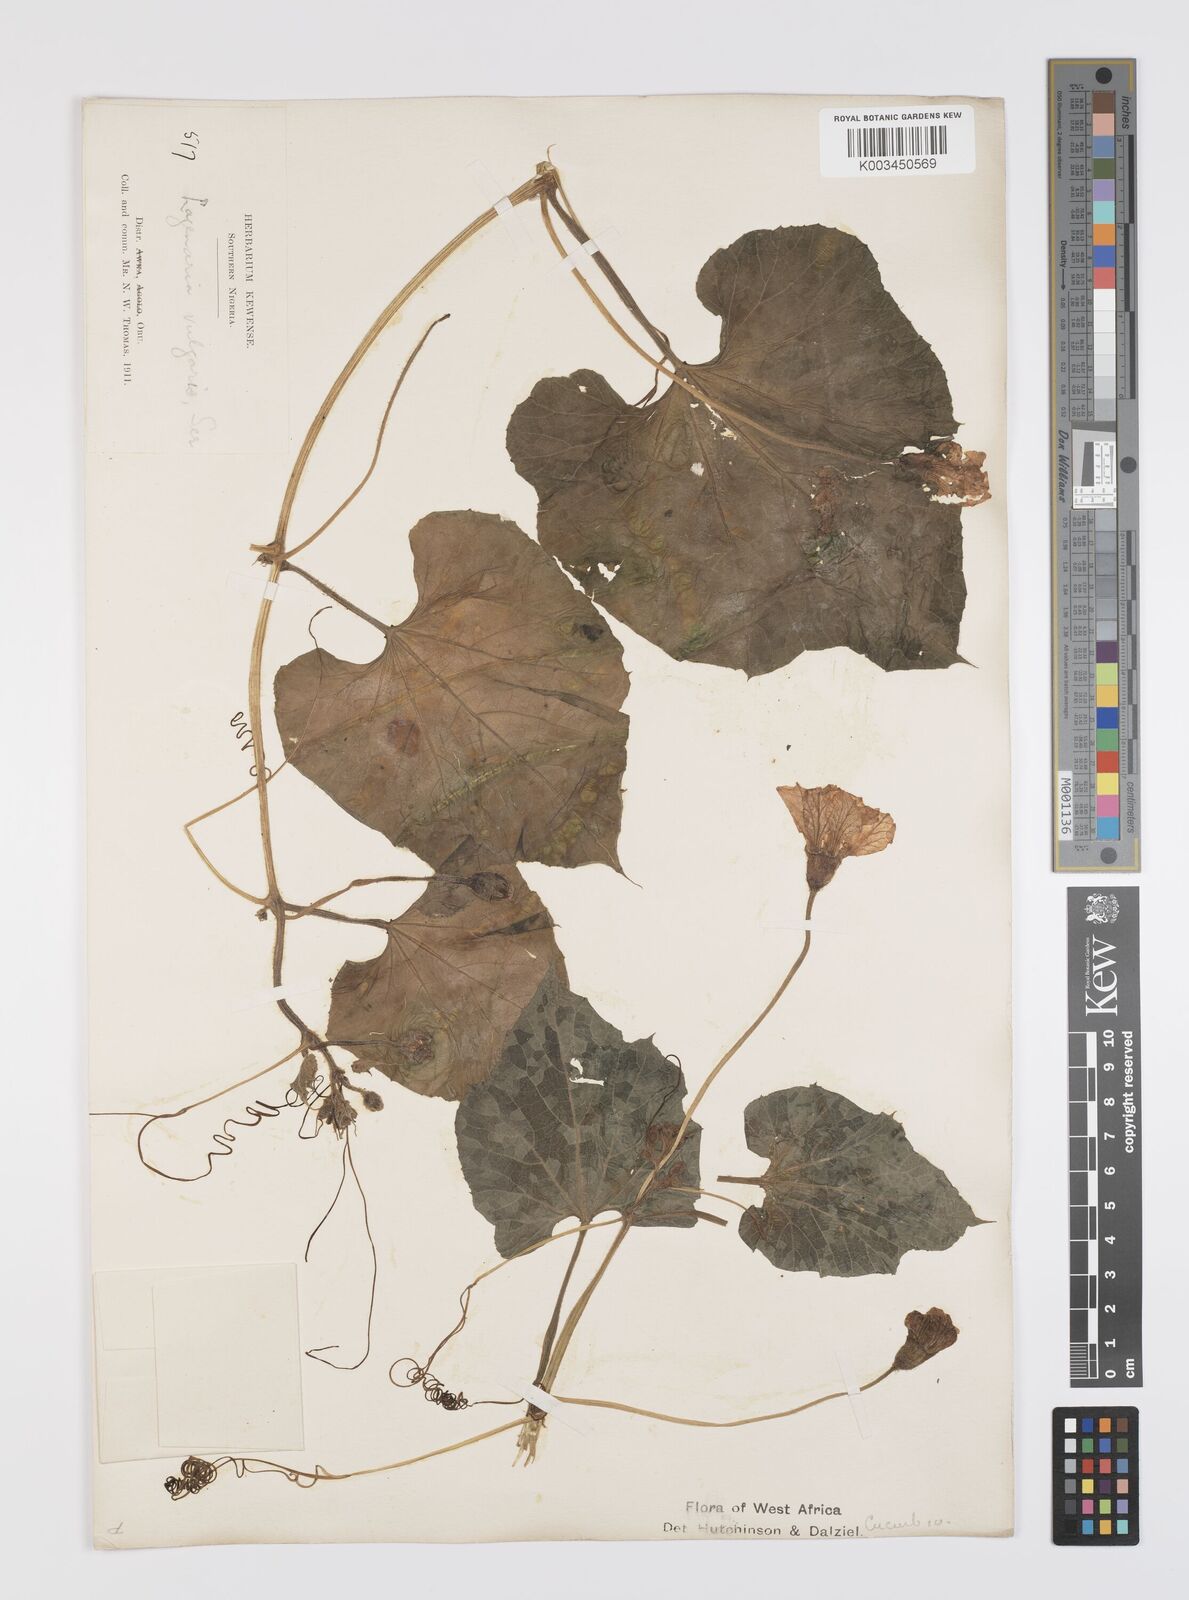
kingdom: Plantae
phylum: Tracheophyta
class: Magnoliopsida
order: Cucurbitales
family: Cucurbitaceae
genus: Lagenaria
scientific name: Lagenaria siceraria
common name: Bottle gourd
